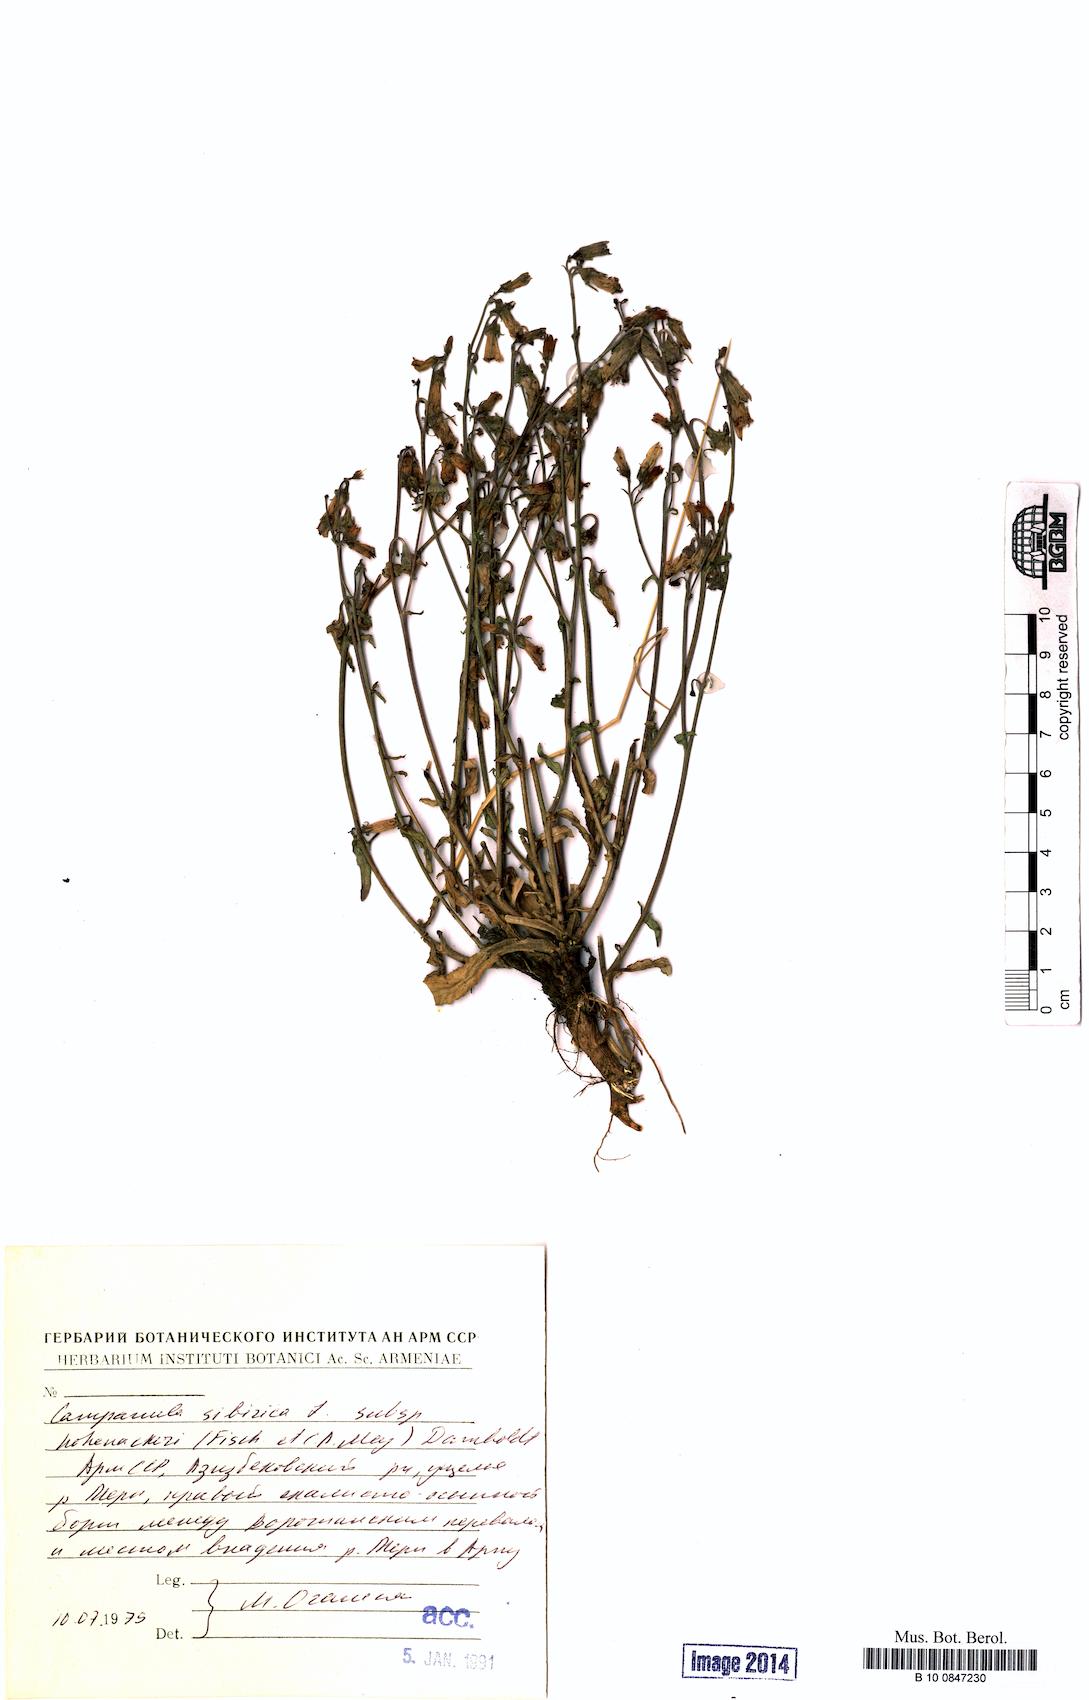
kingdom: Plantae
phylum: Tracheophyta
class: Magnoliopsida
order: Asterales
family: Campanulaceae
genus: Campanula
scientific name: Campanula sibirica
